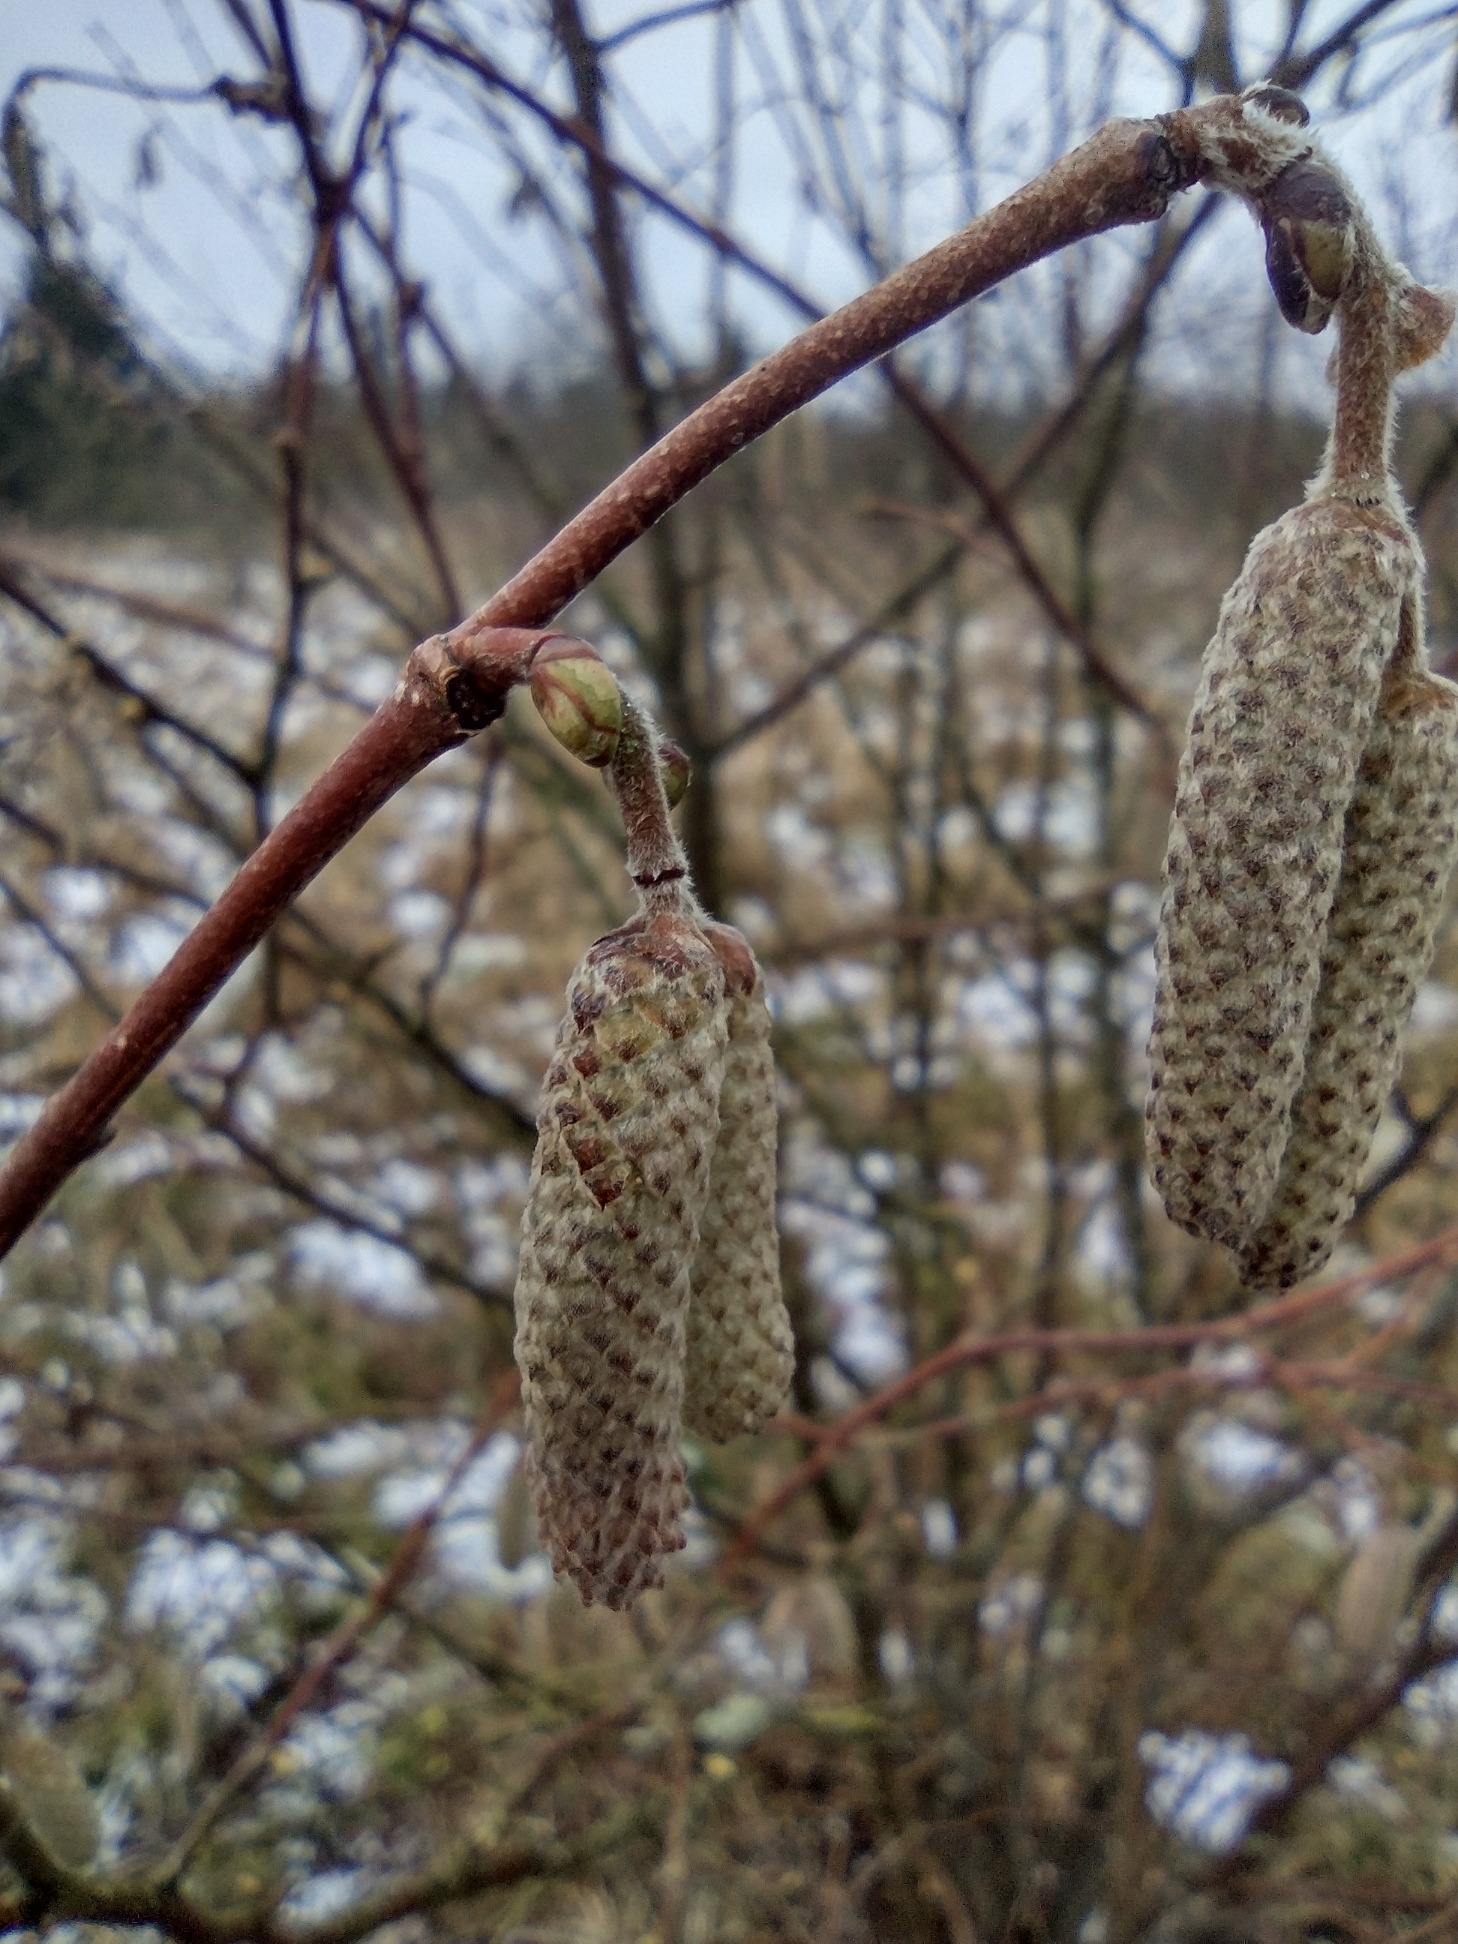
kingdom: Plantae
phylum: Tracheophyta
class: Magnoliopsida
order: Fagales
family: Betulaceae
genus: Corylus
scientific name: Corylus avellana
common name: Hassel
